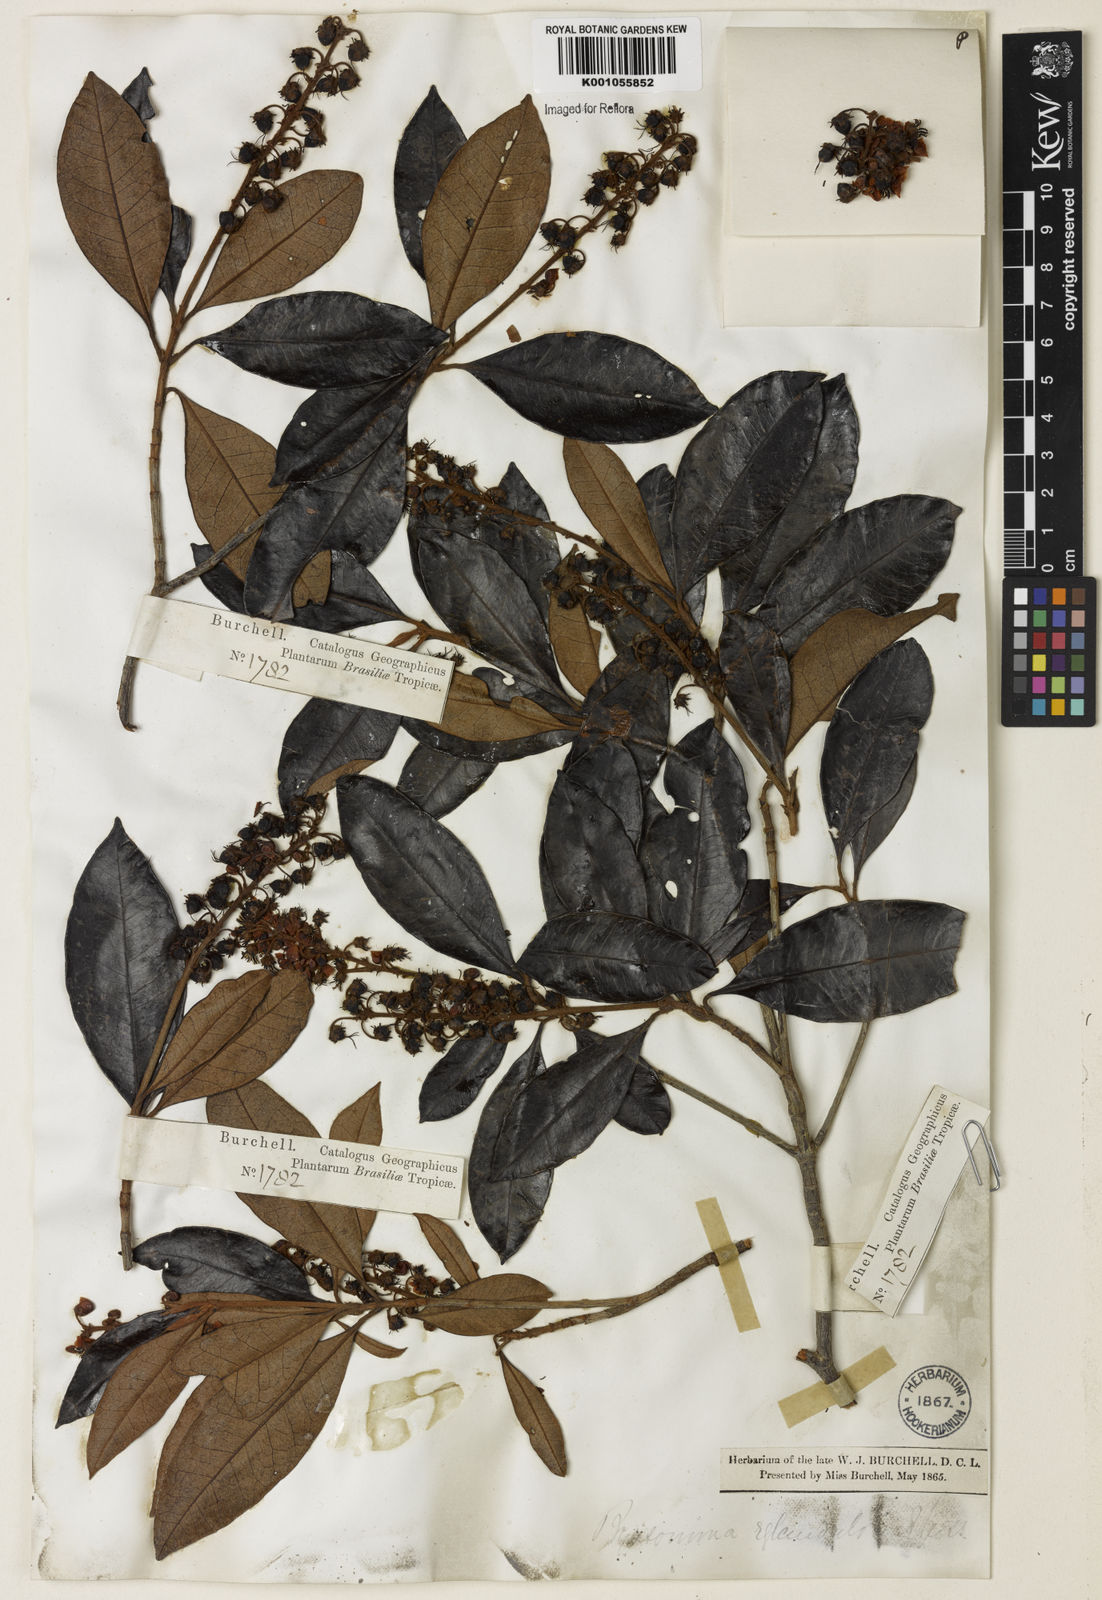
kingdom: Plantae
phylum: Tracheophyta
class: Magnoliopsida
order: Malpighiales
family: Malpighiaceae
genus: Byrsonima
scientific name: Byrsonima sericea
